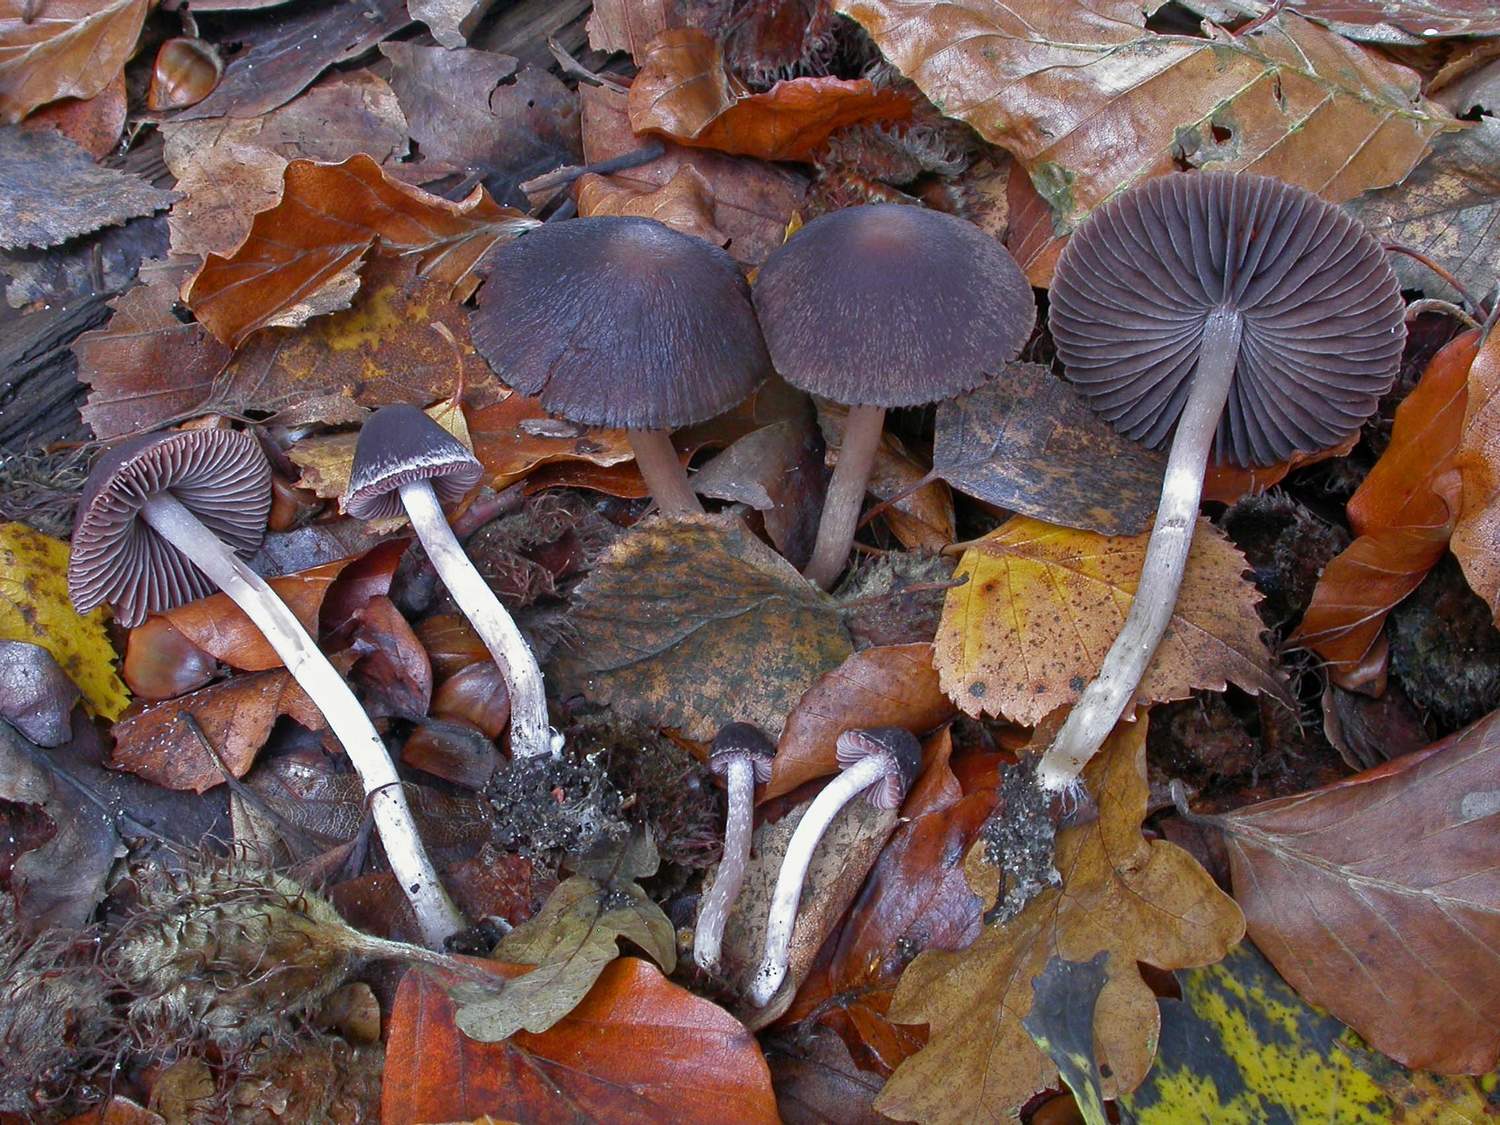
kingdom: Fungi
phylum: Basidiomycota
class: Agaricomycetes
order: Agaricales
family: Psathyrellaceae
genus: Psathyrella
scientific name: Psathyrella bipellis
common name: vinrød mørkhat
